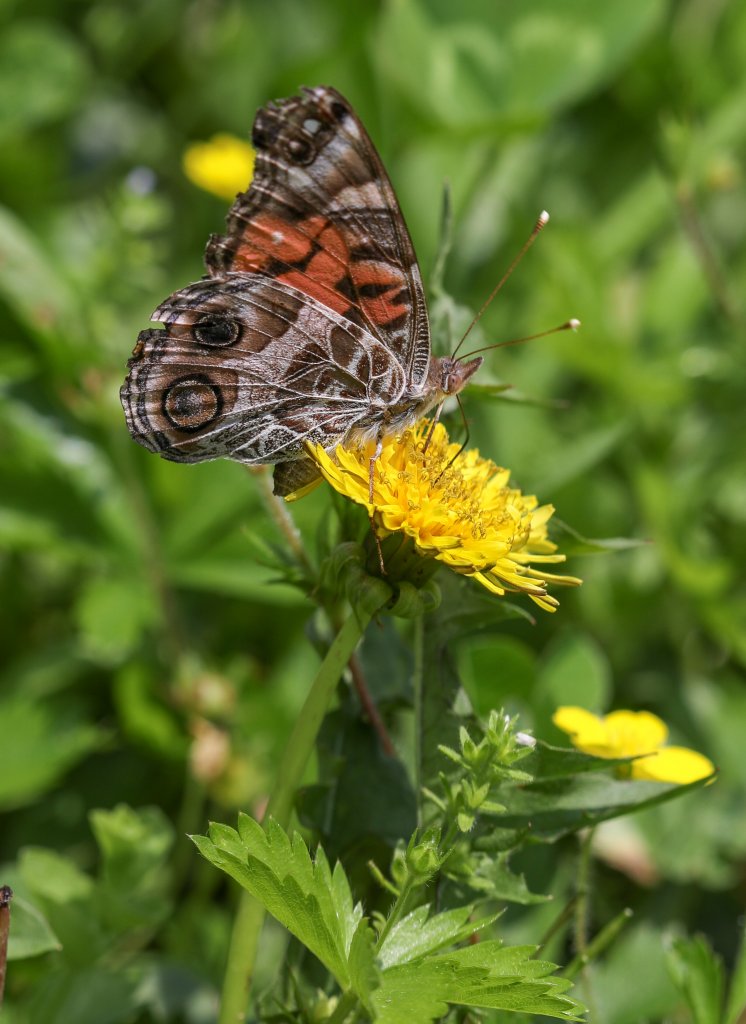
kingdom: Animalia
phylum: Arthropoda
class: Insecta
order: Lepidoptera
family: Nymphalidae
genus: Vanessa
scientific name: Vanessa virginiensis
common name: American Lady
